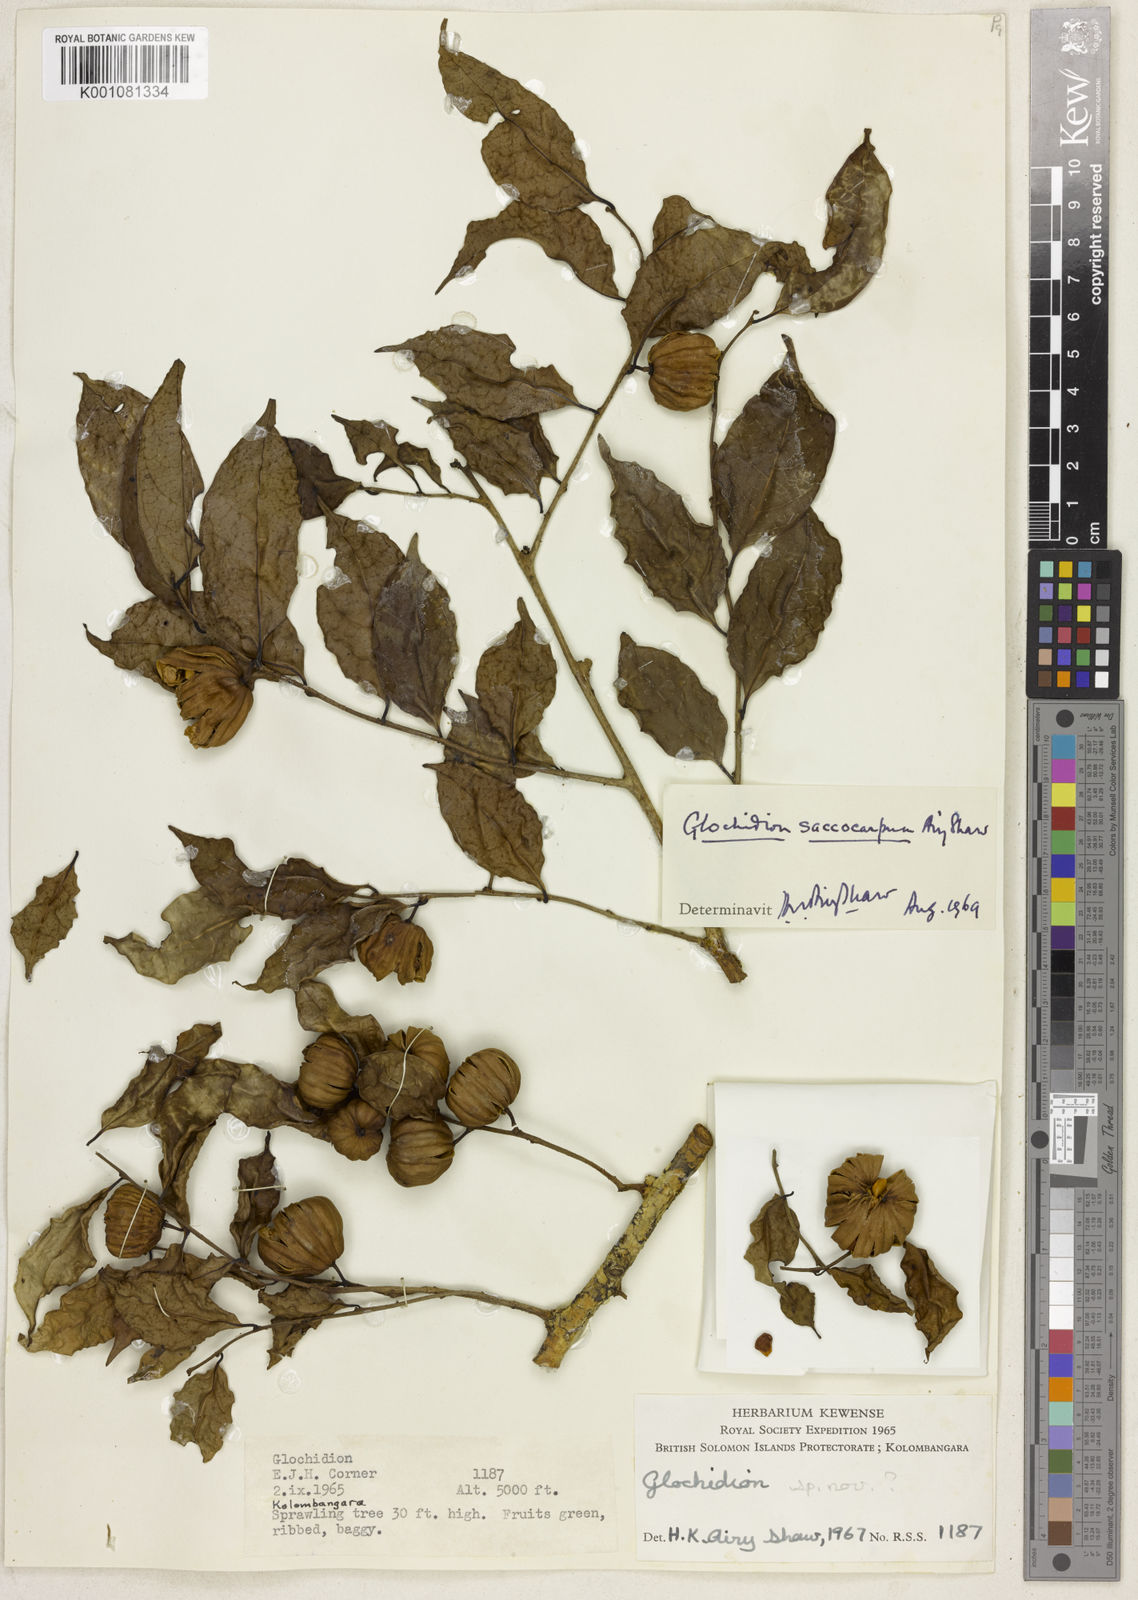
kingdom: Plantae
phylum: Tracheophyta
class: Magnoliopsida
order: Malpighiales
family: Phyllanthaceae
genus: Glochidion
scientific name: Glochidion saccocarpum
